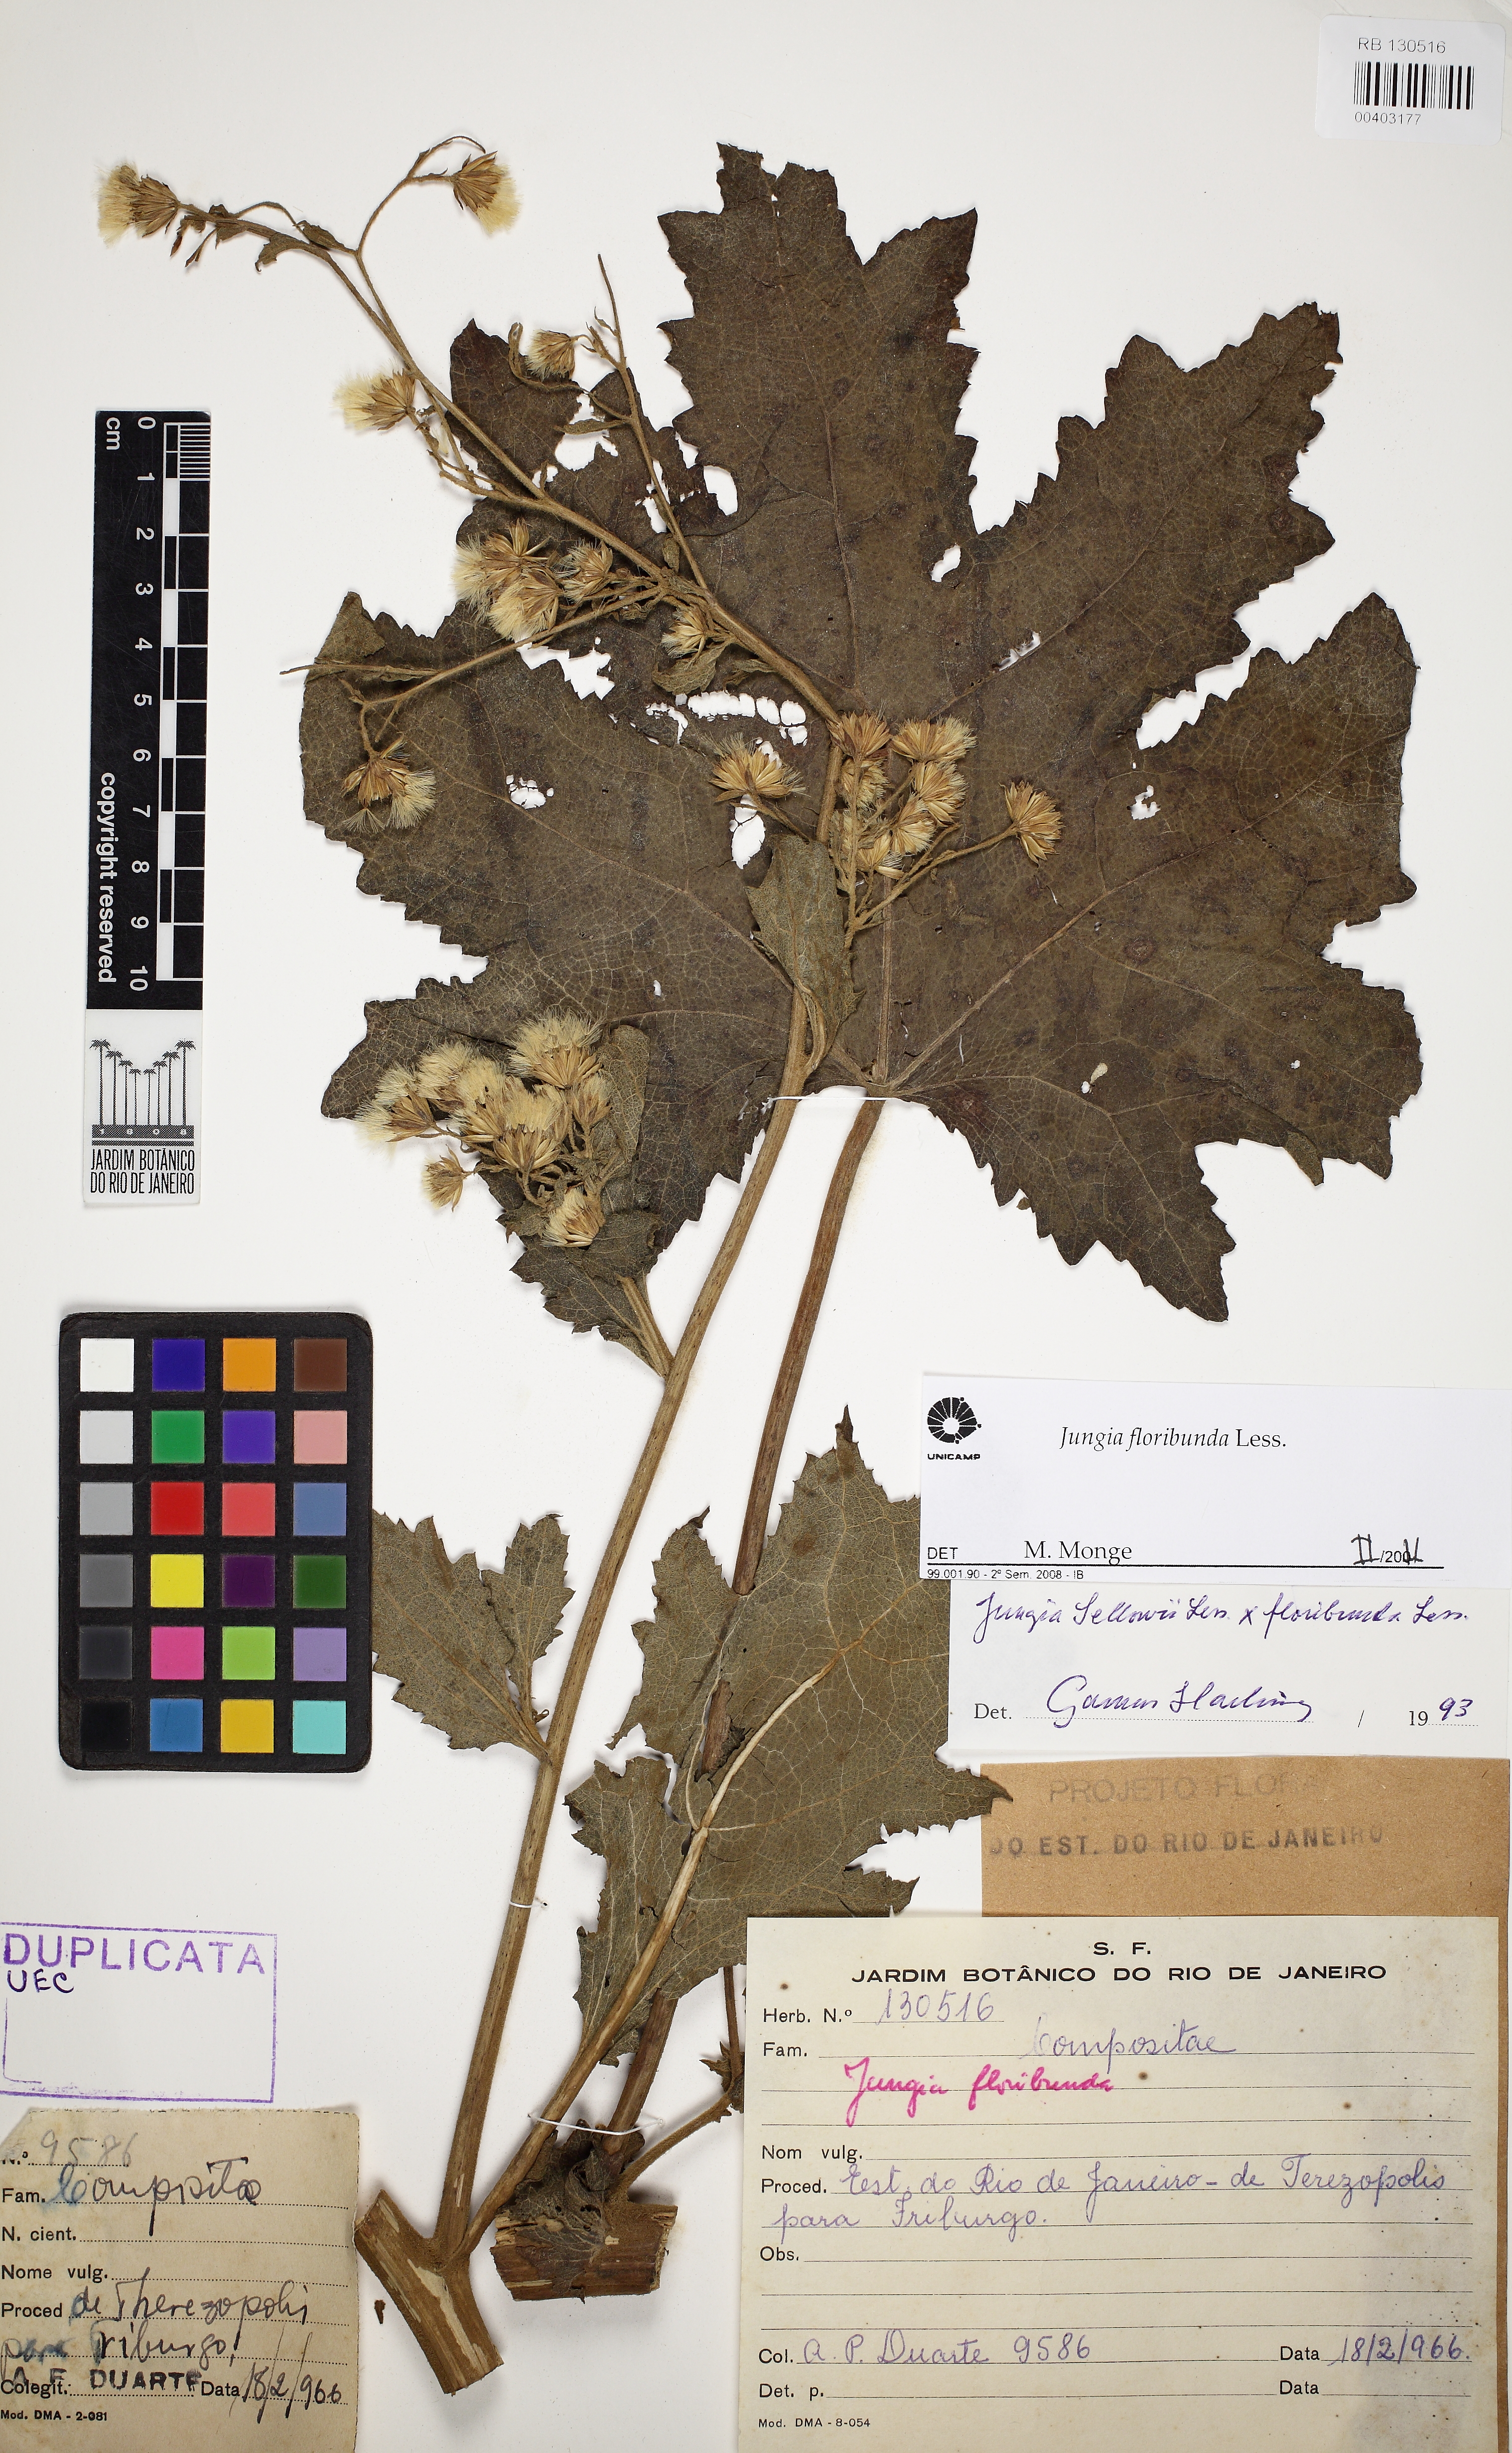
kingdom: Plantae
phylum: Tracheophyta
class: Magnoliopsida
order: Asterales
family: Asteraceae
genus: Jungia
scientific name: Jungia floribunda
